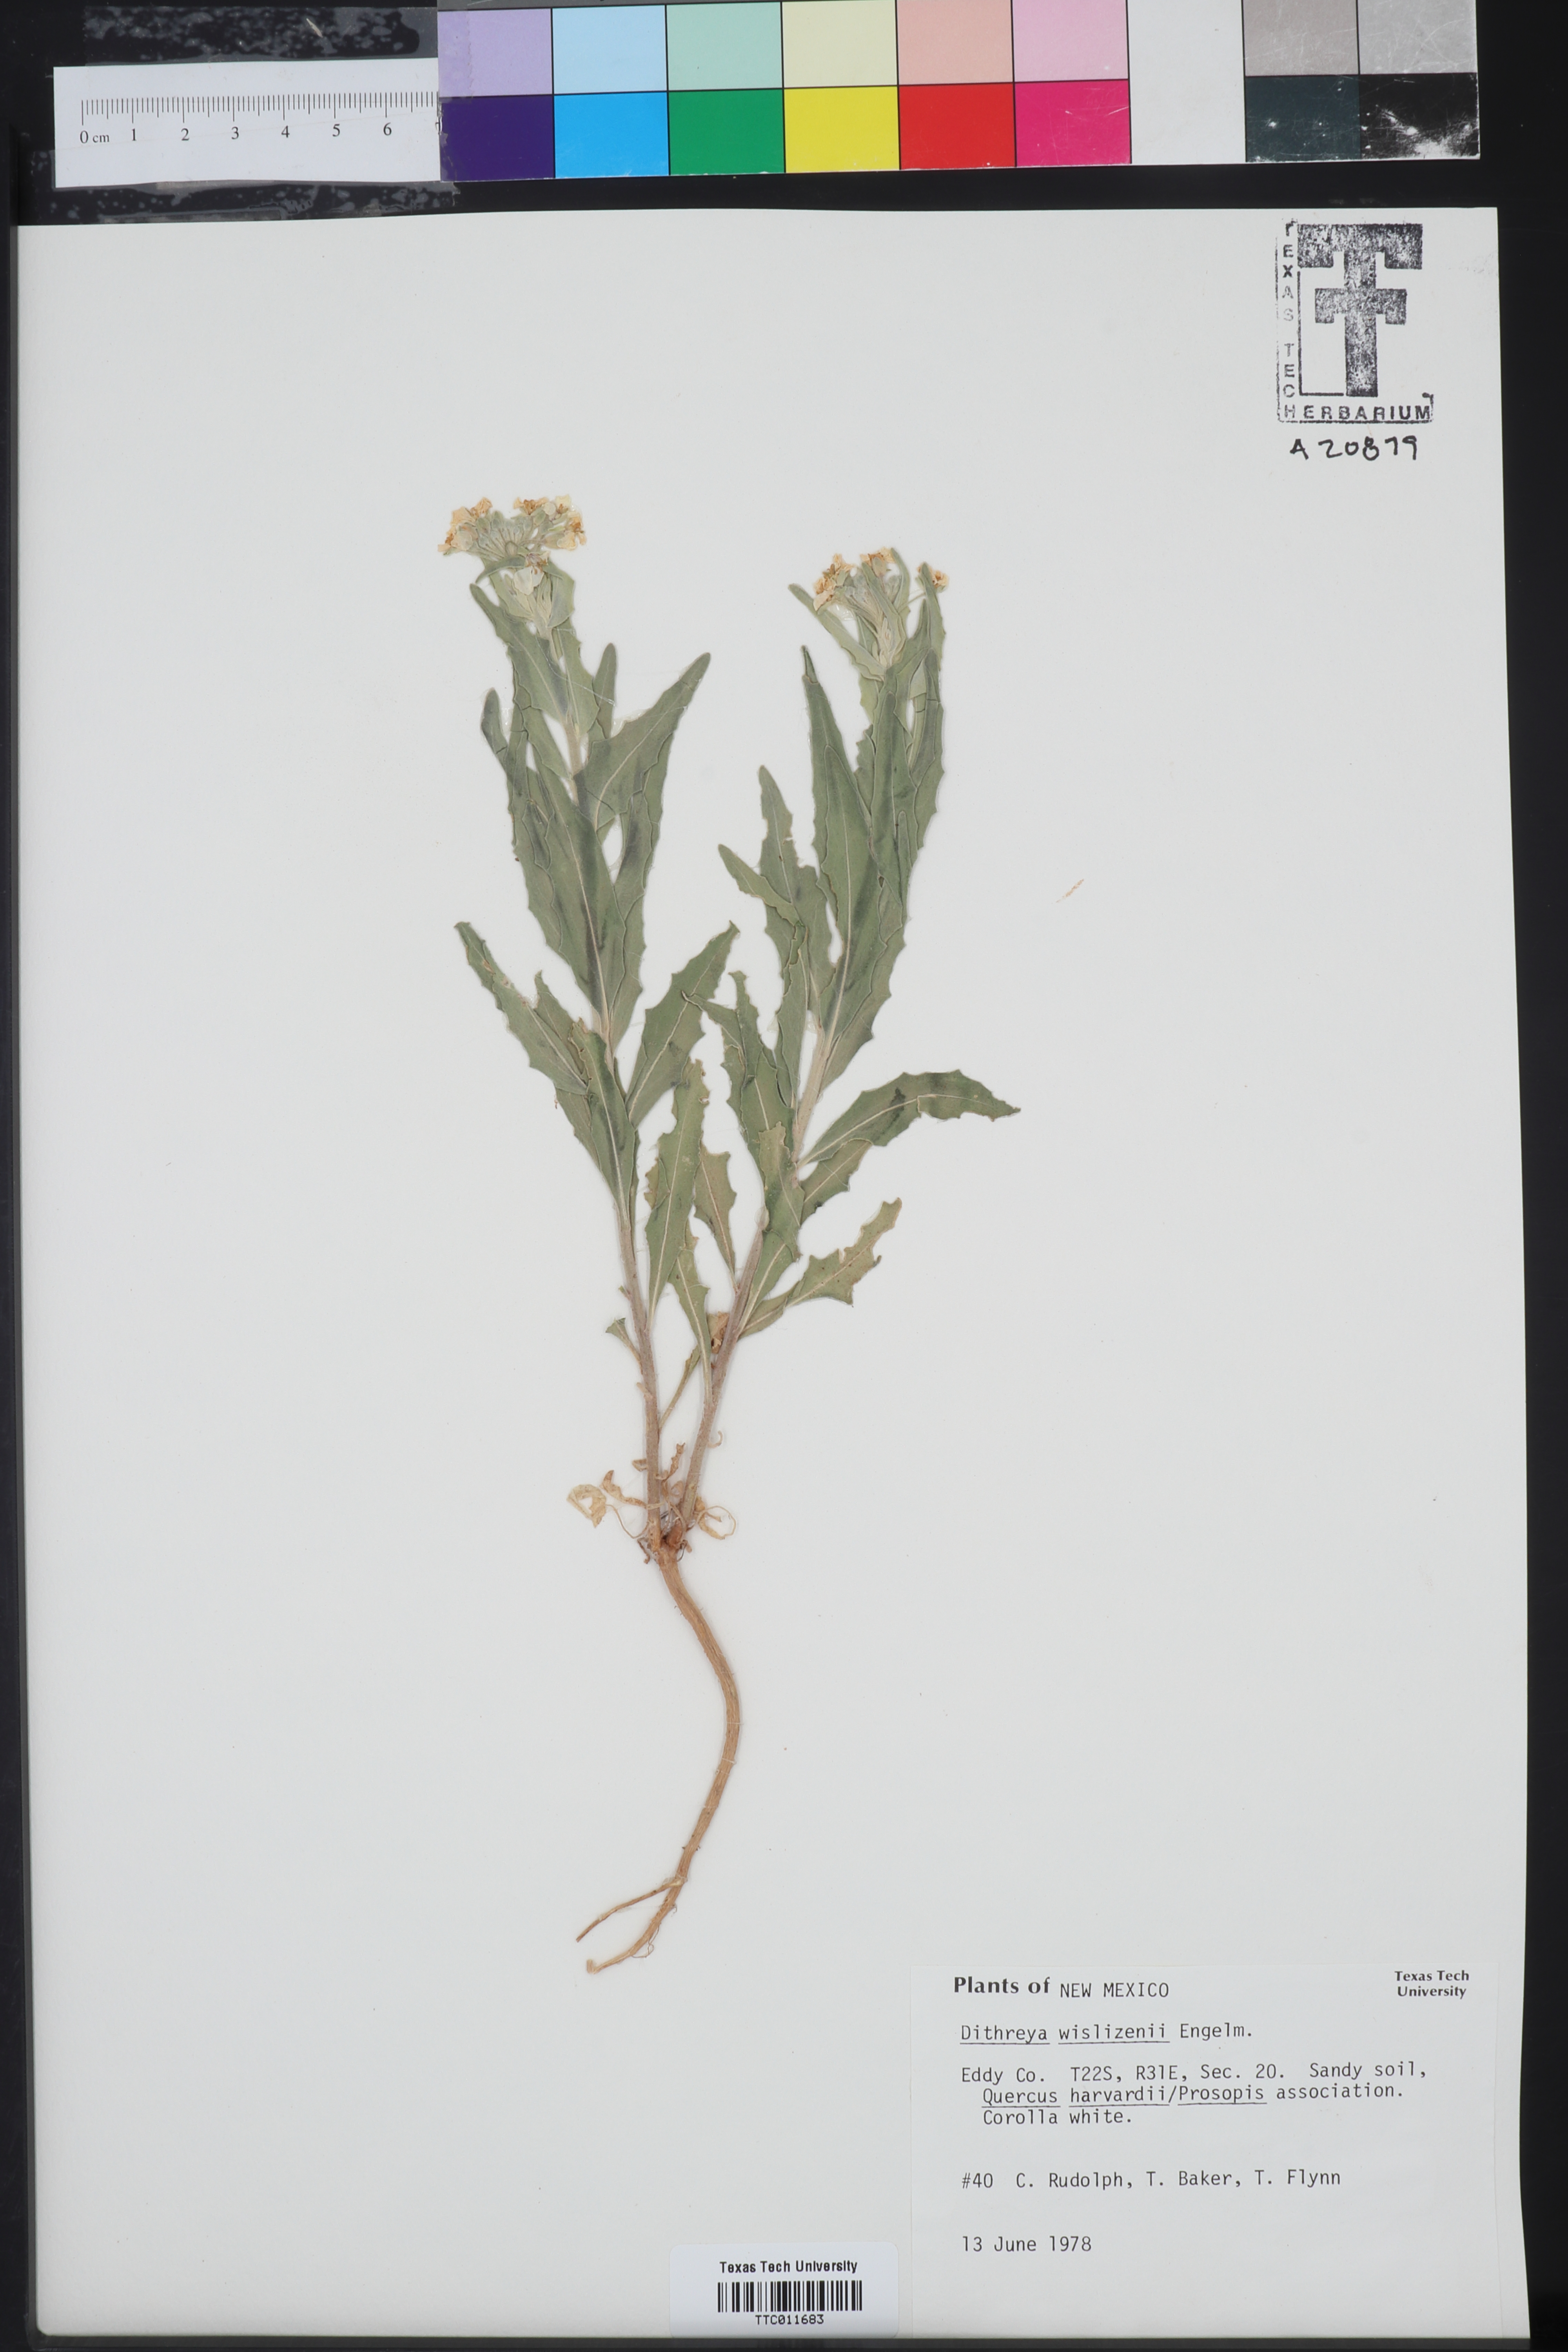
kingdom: Plantae
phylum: Tracheophyta
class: Magnoliopsida
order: Brassicales
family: Brassicaceae
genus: Dimorphocarpa
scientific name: Dimorphocarpa wislizenii
